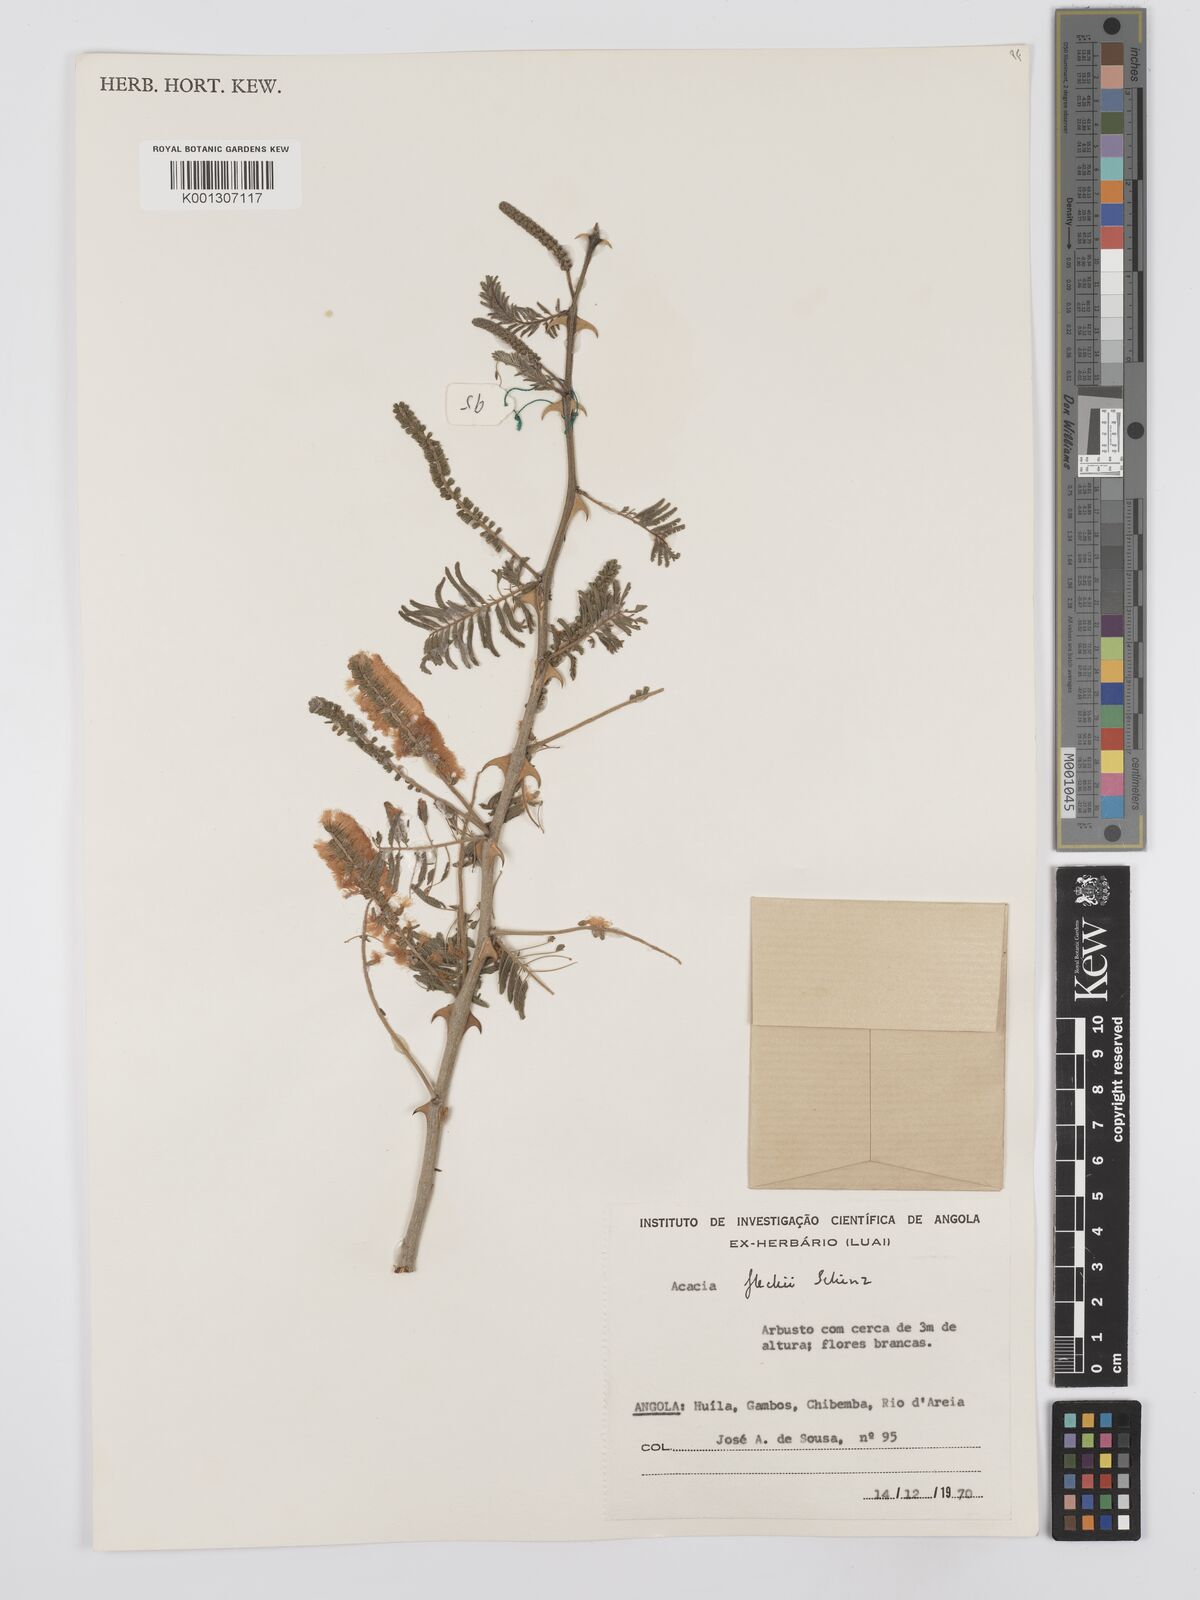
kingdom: Plantae
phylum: Tracheophyta
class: Magnoliopsida
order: Fabales
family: Fabaceae
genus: Senegalia
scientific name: Senegalia fleckii
